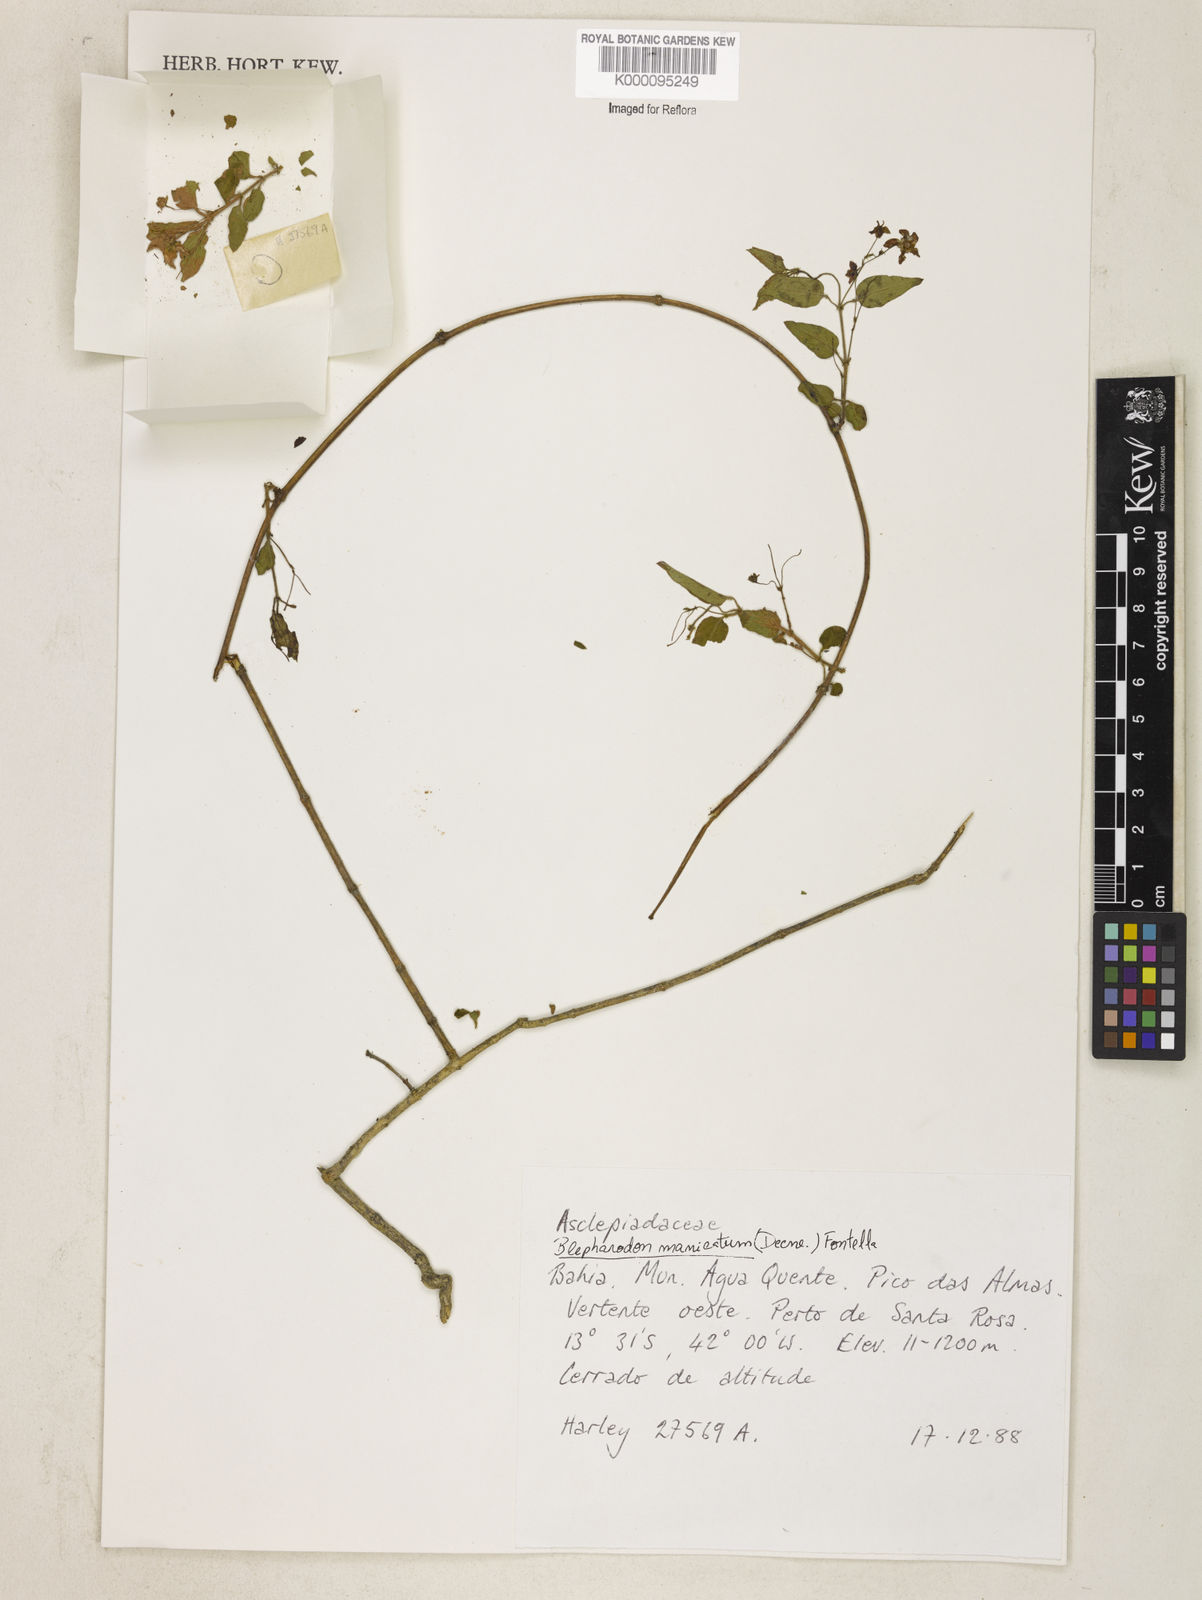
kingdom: Plantae
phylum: Tracheophyta
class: Magnoliopsida
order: Gentianales
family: Apocynaceae
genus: Blepharodon
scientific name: Blepharodon manicatum
